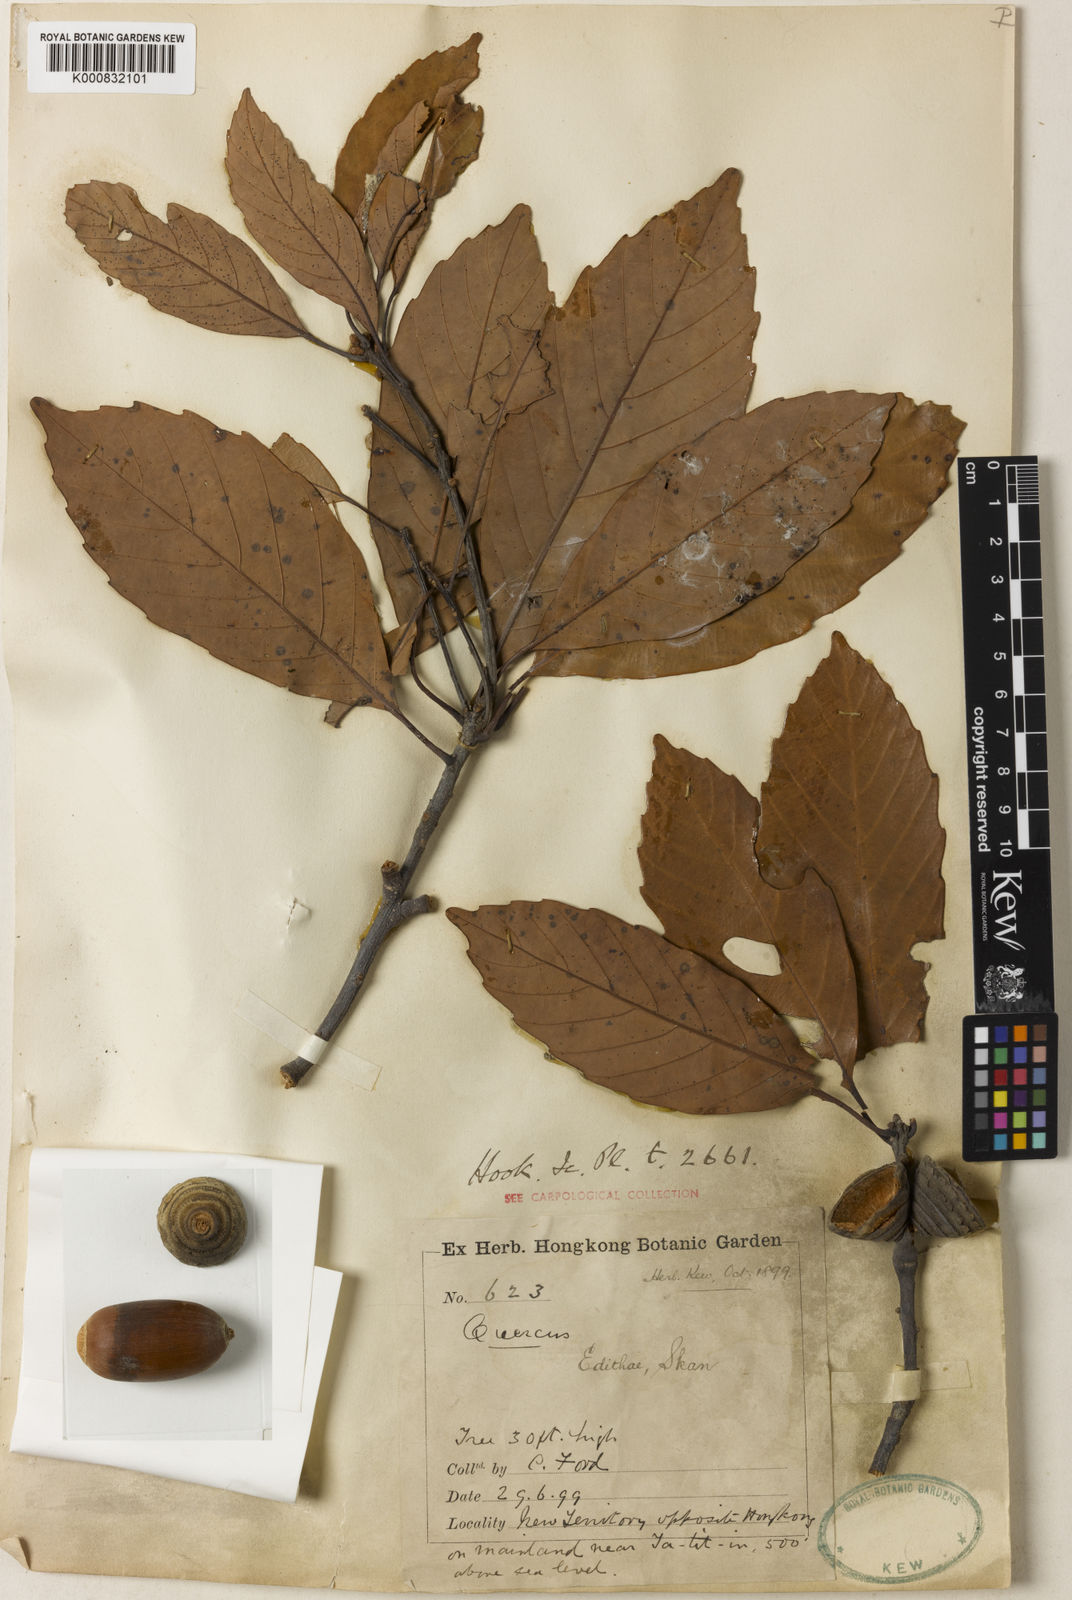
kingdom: Plantae
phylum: Tracheophyta
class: Magnoliopsida
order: Fagales
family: Fagaceae
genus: Quercus
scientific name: Quercus edithiae
